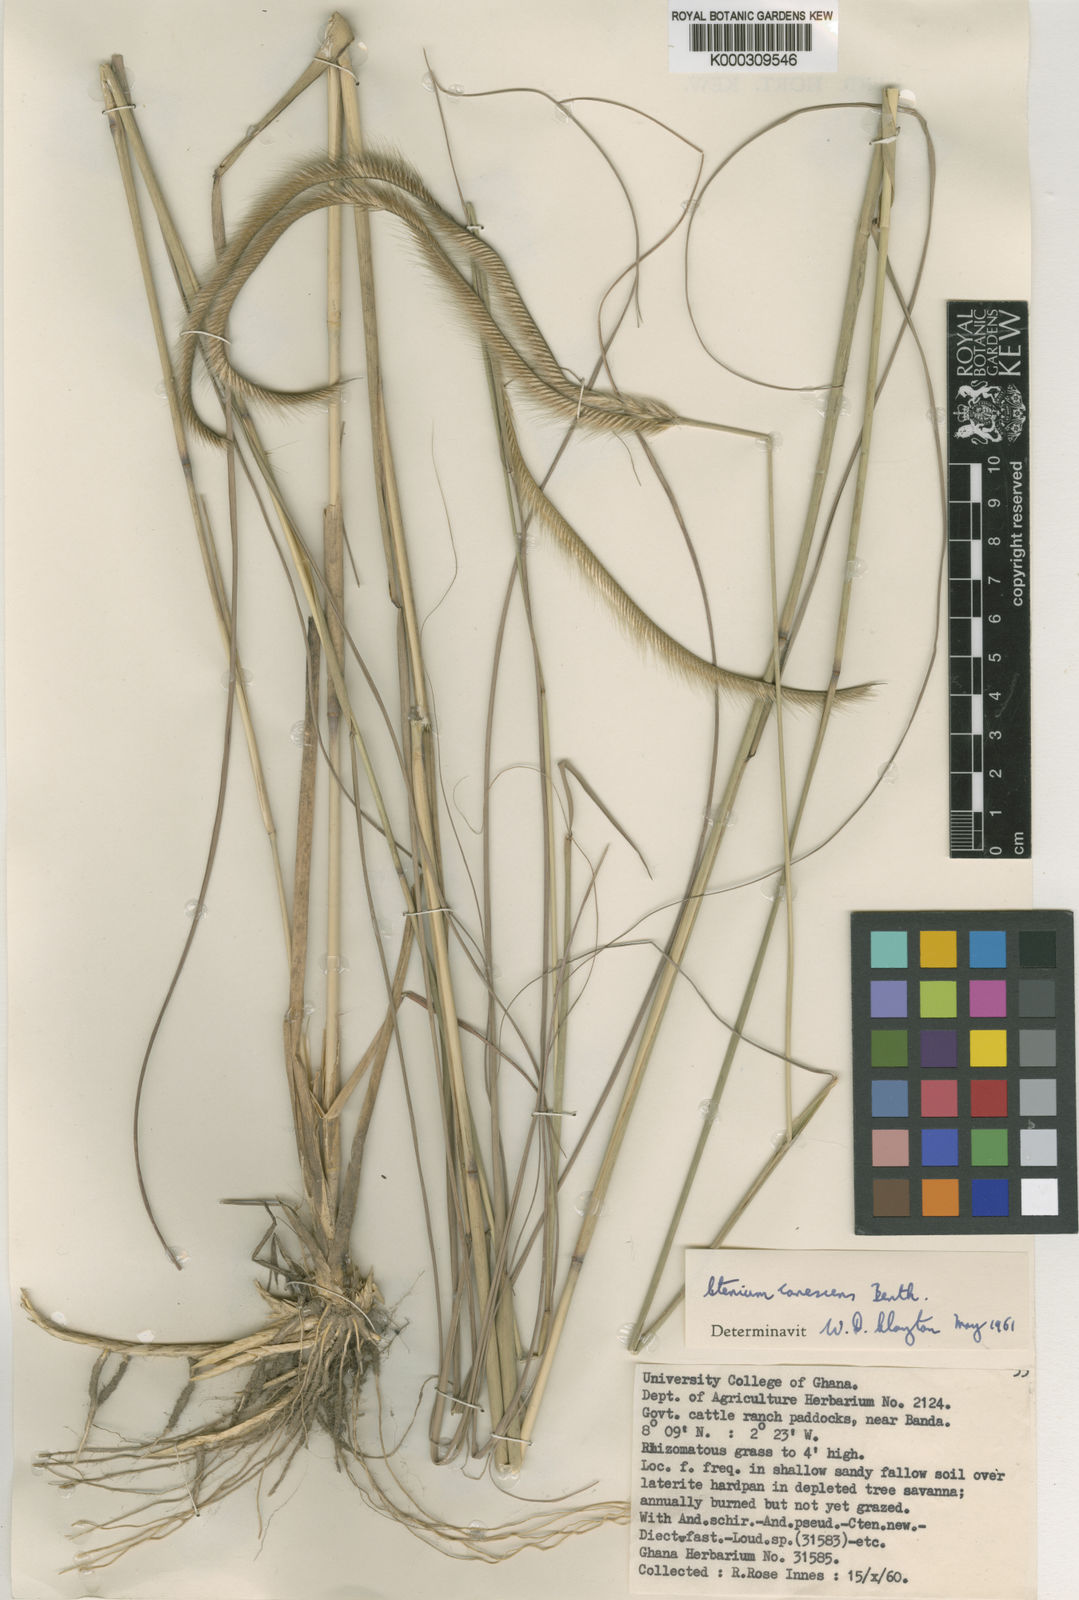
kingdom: Plantae
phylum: Tracheophyta
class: Liliopsida
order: Poales
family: Poaceae
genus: Ctenium
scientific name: Ctenium canescens
